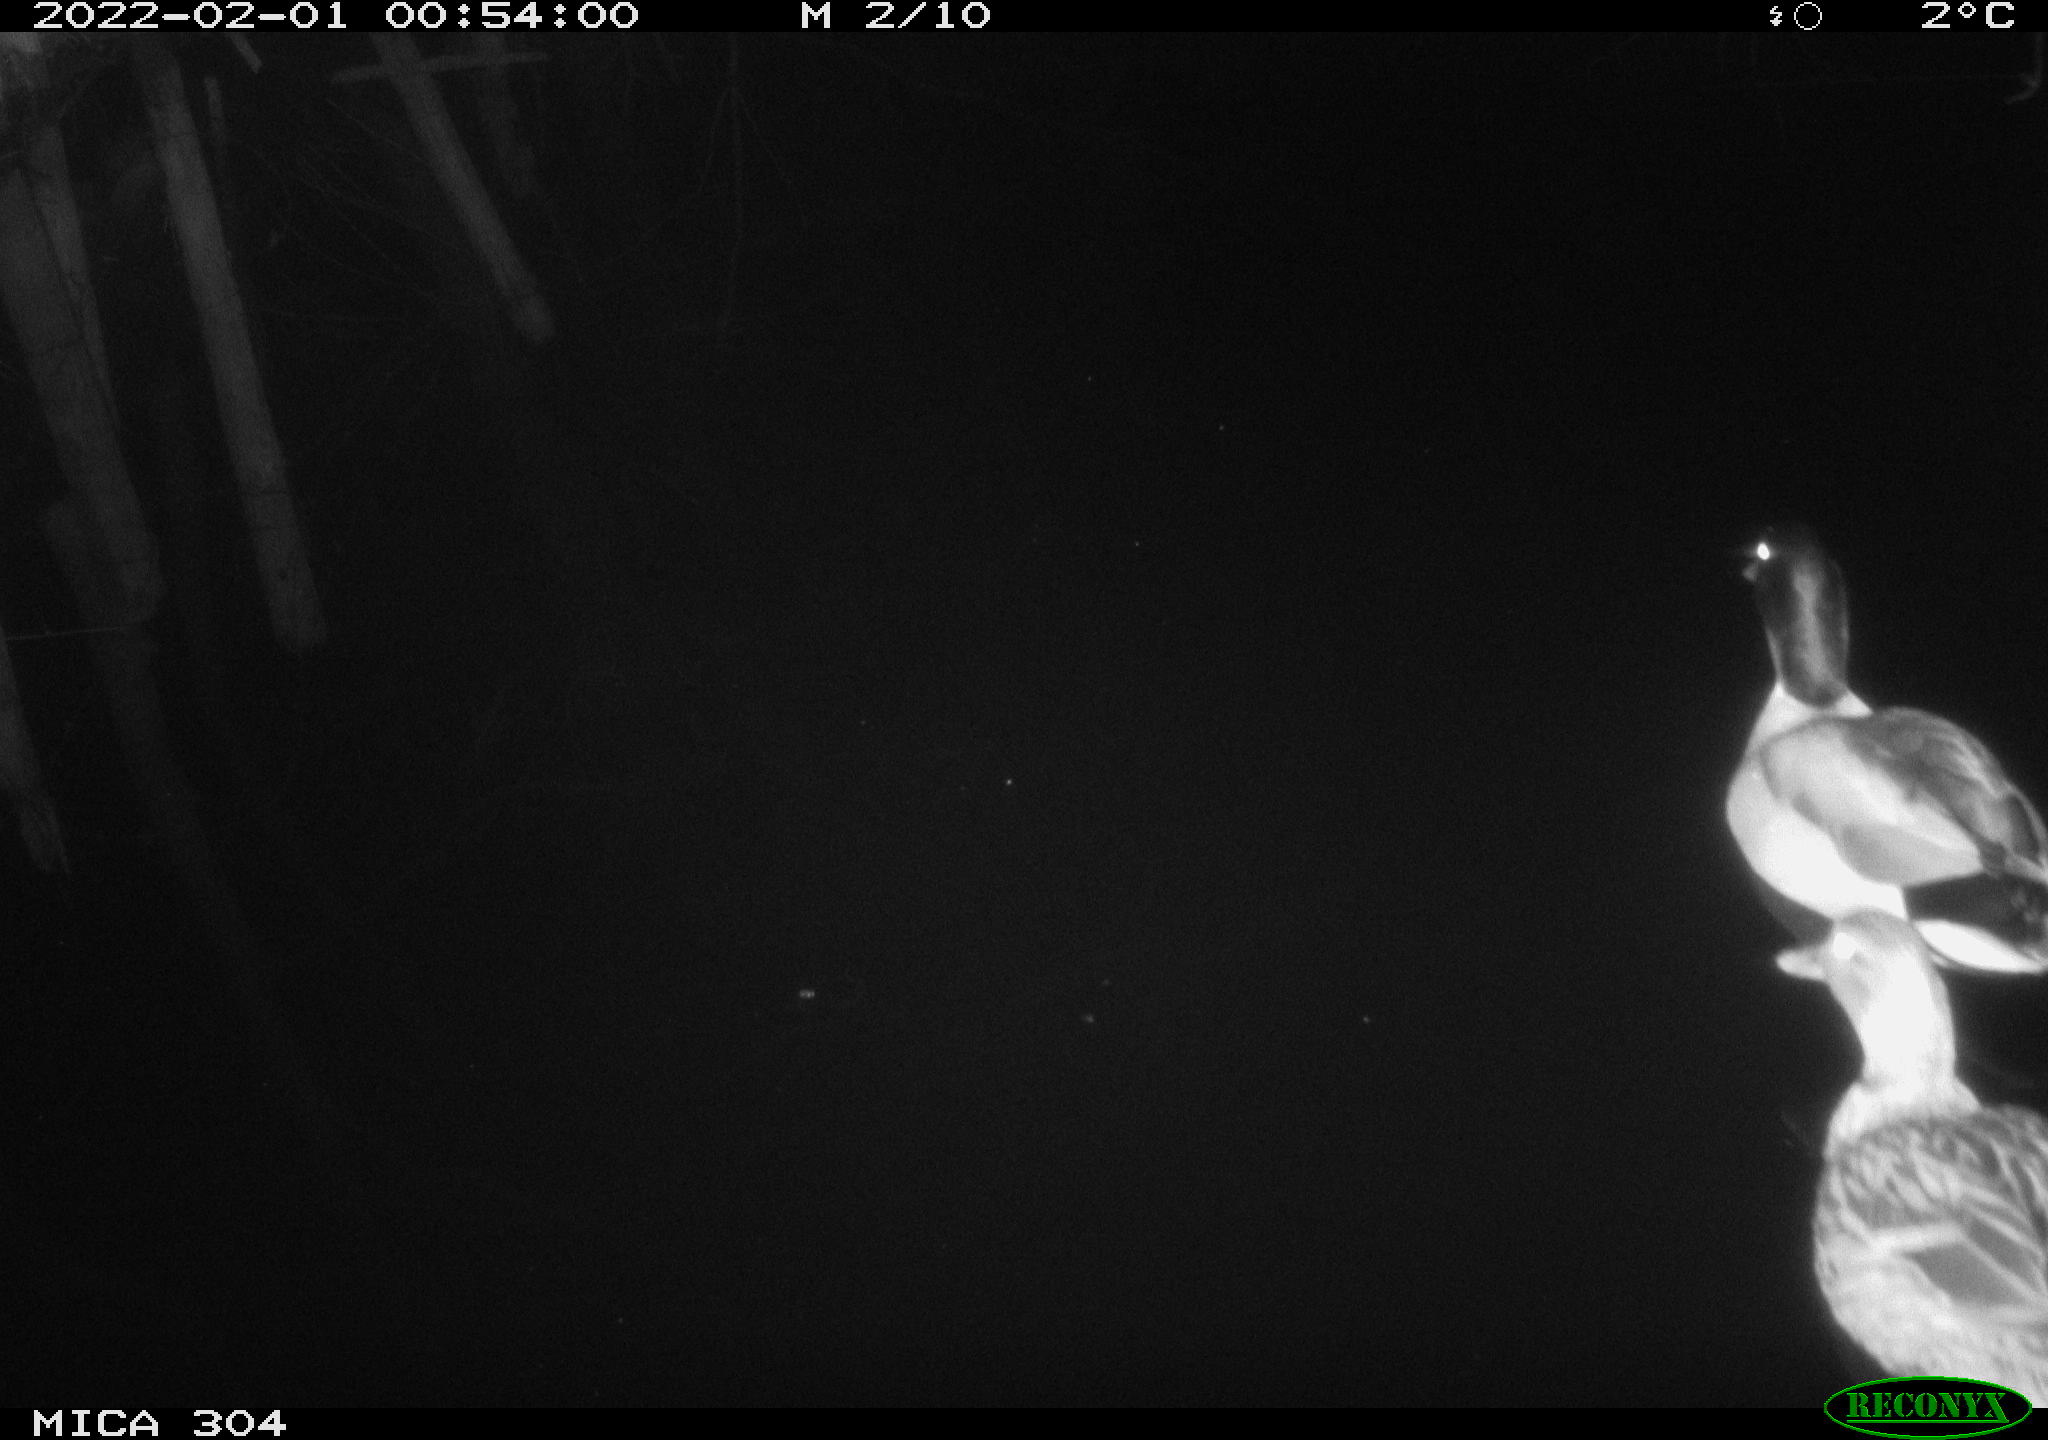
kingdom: Animalia
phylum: Chordata
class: Aves
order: Anseriformes
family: Anatidae
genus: Anas
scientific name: Anas
